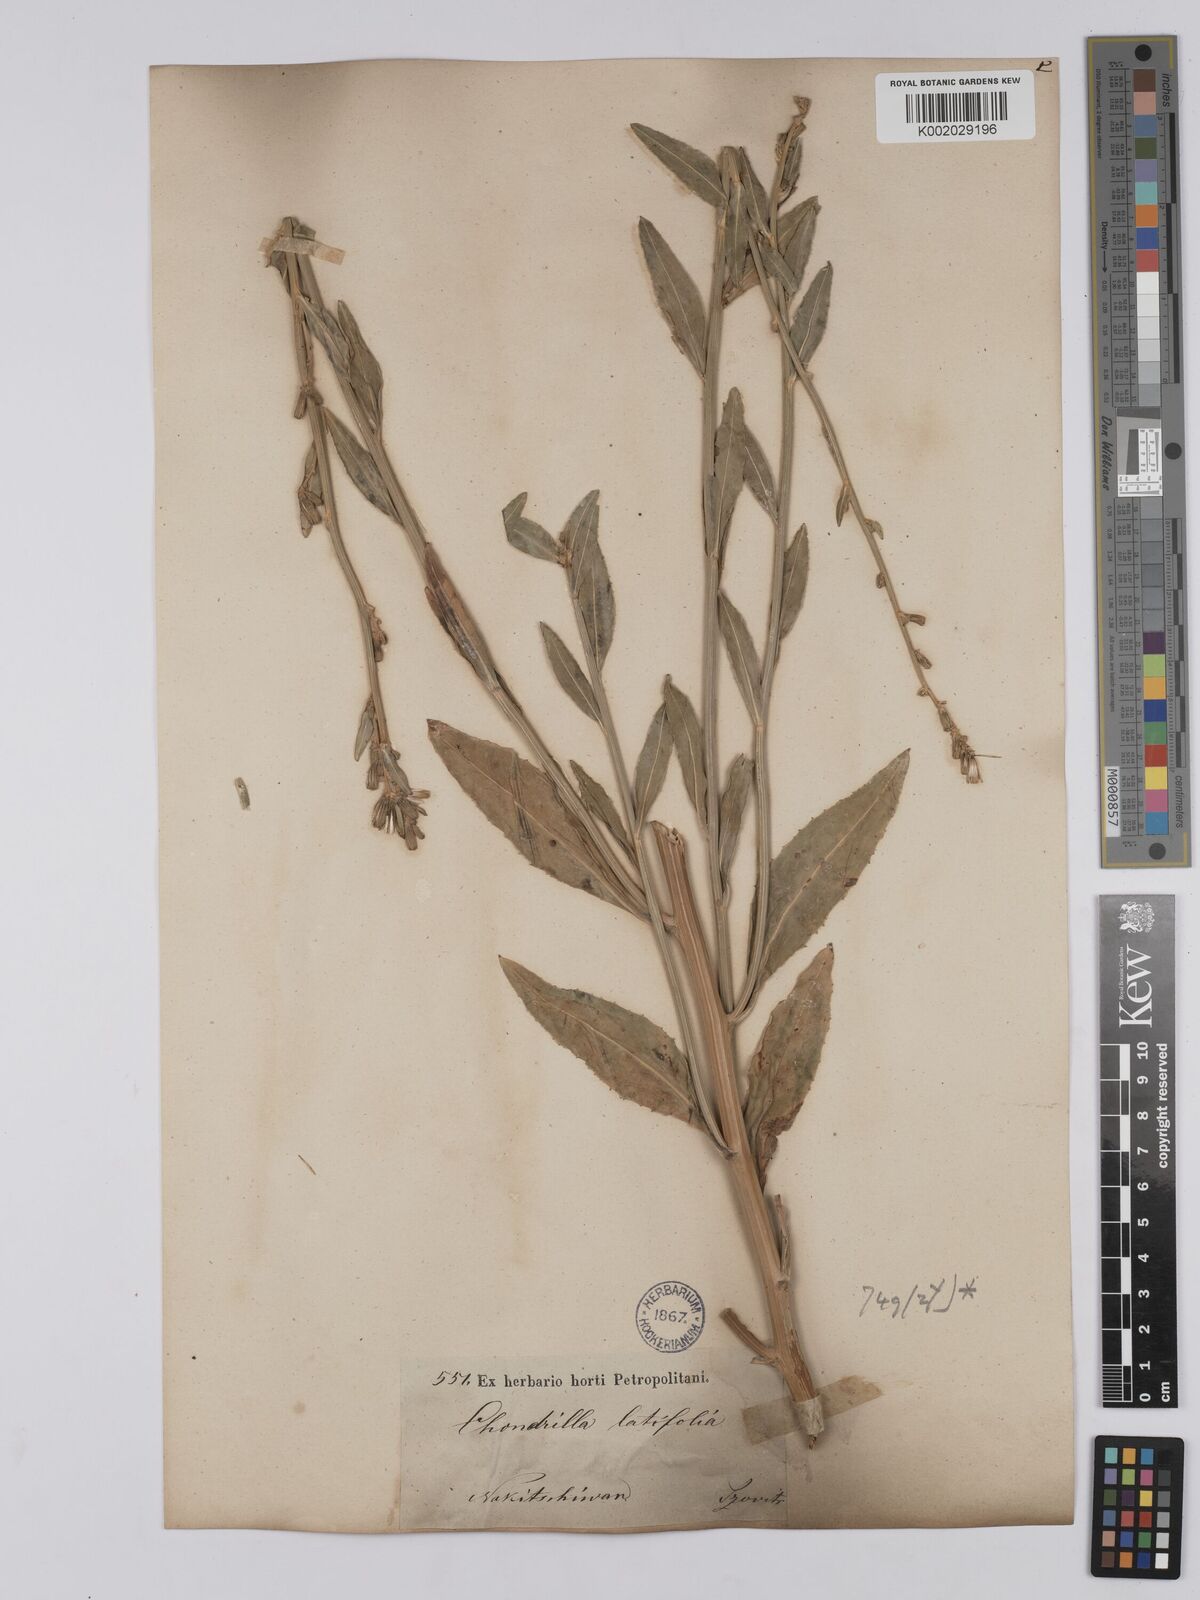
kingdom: Plantae
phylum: Tracheophyta
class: Magnoliopsida
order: Asterales
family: Asteraceae
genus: Chondrilla
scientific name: Chondrilla latifolia
